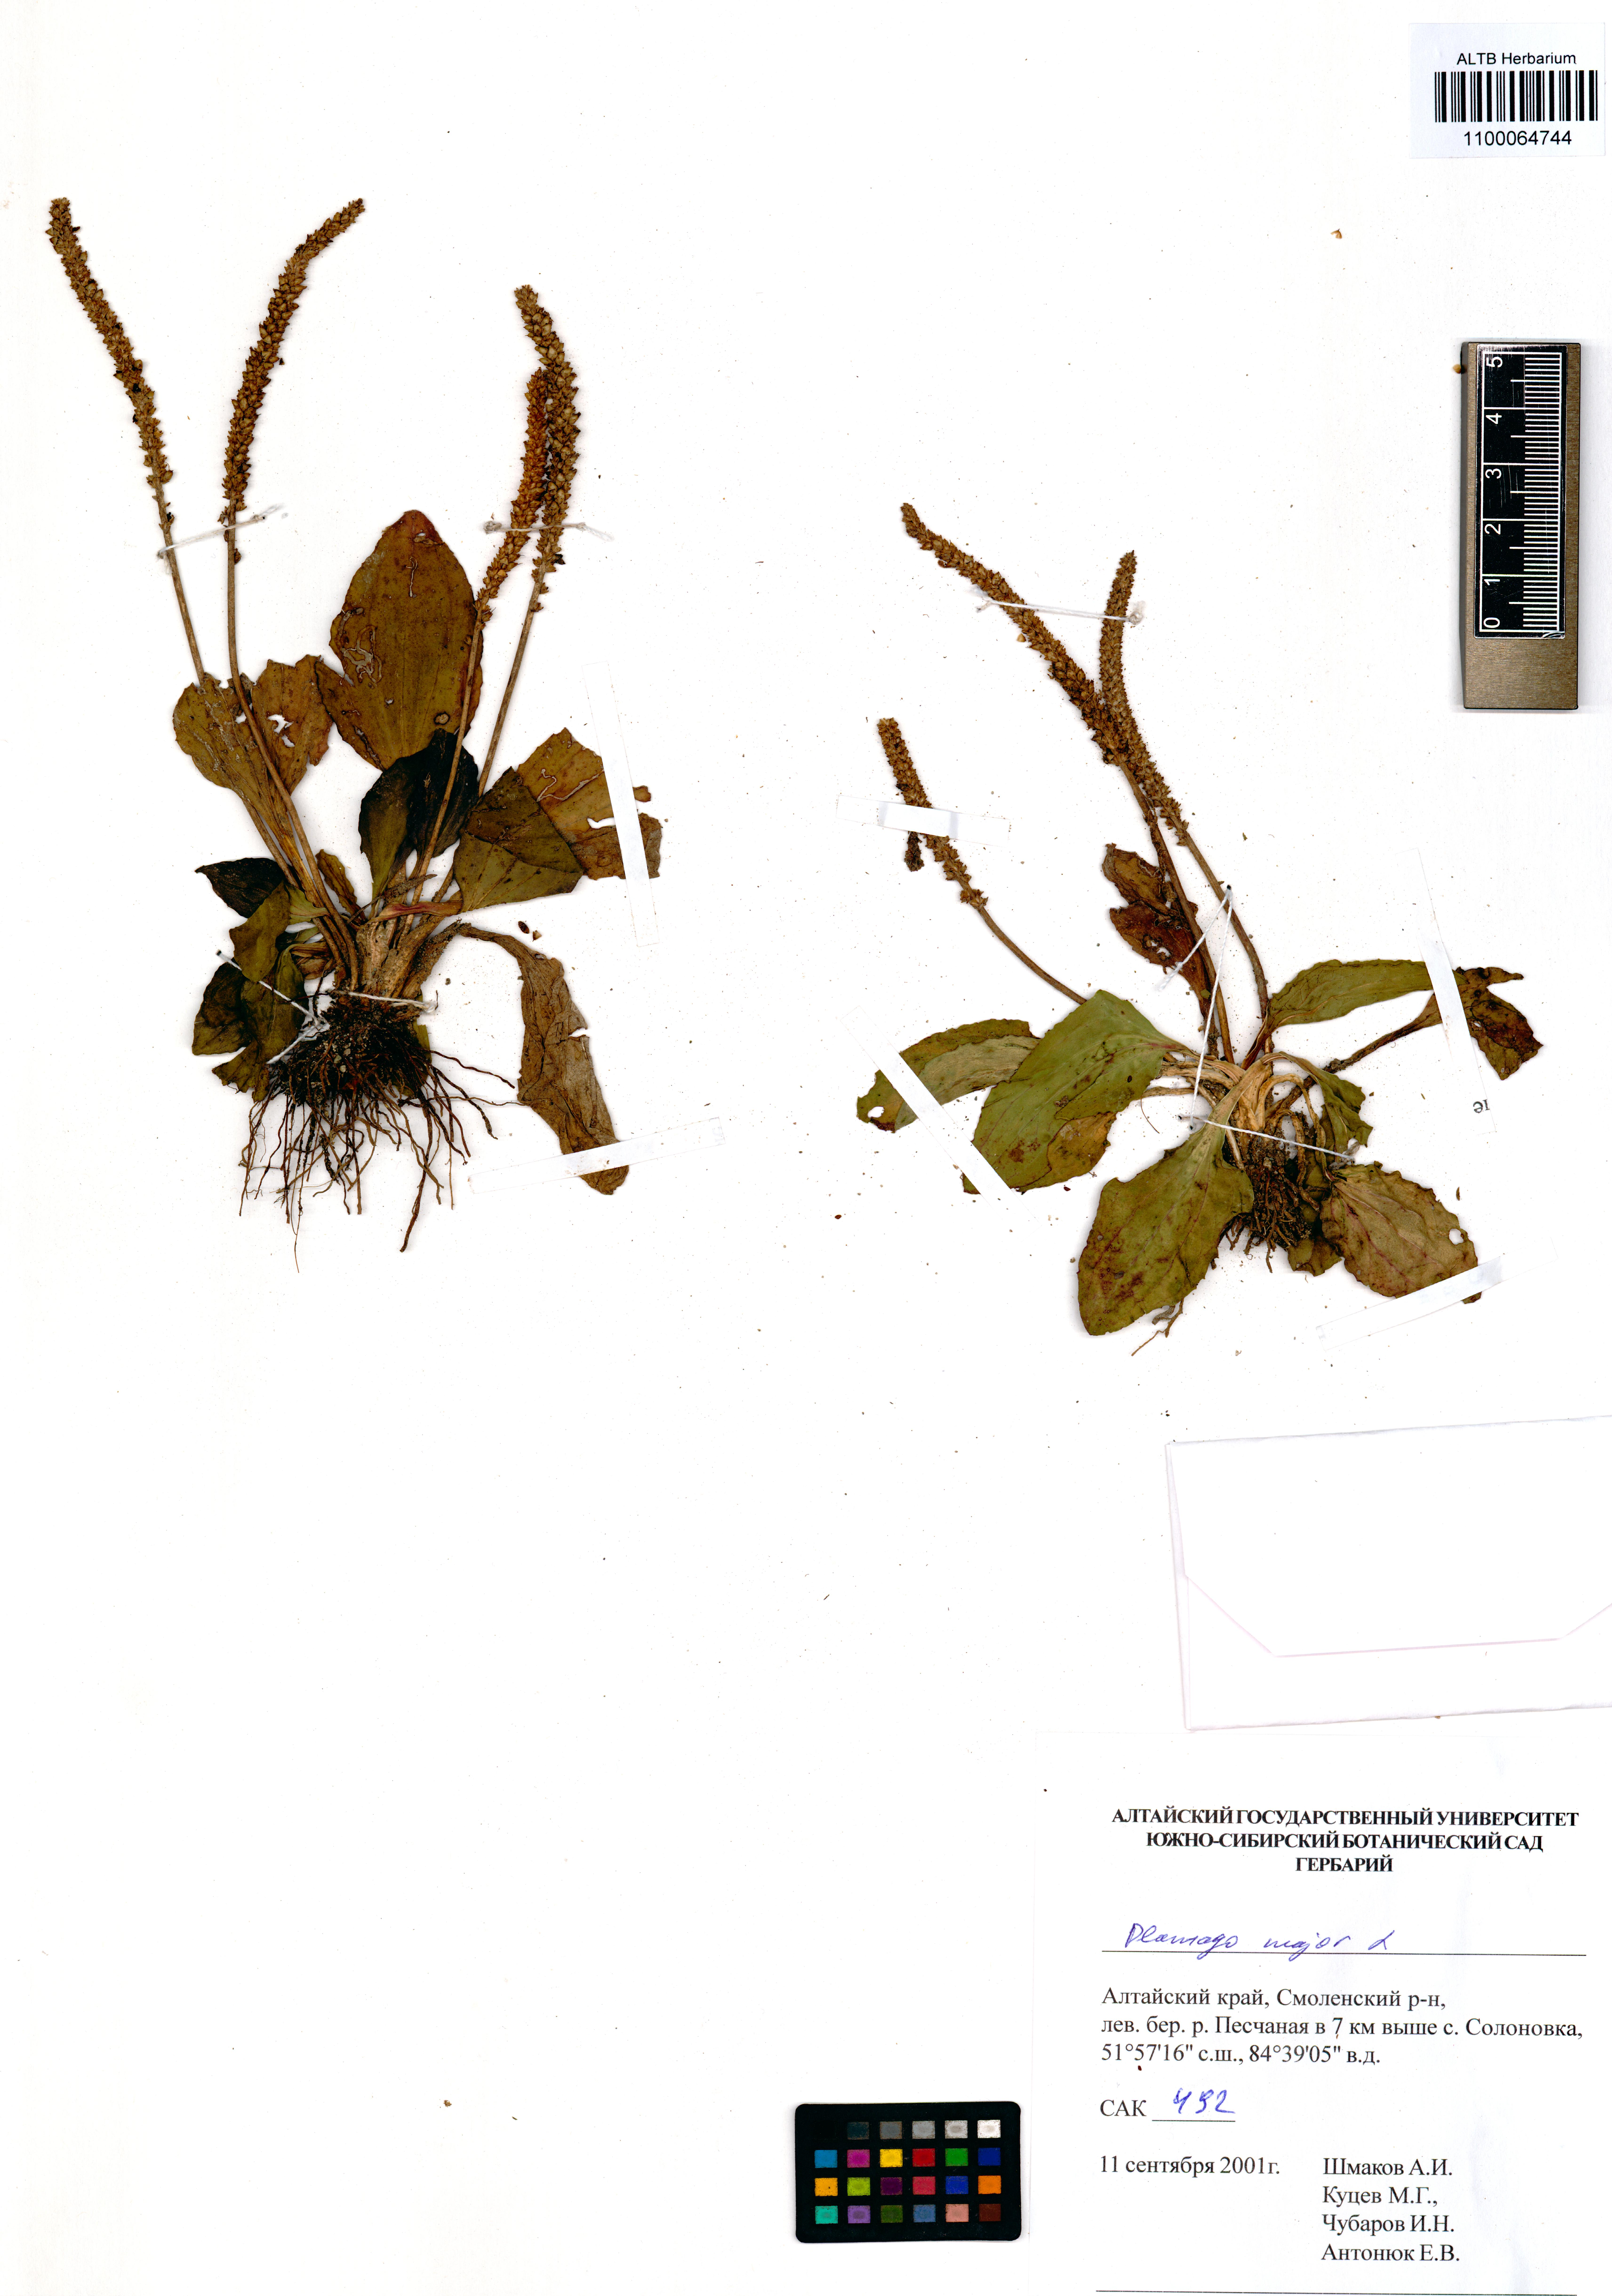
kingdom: Plantae
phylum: Tracheophyta
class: Magnoliopsida
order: Lamiales
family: Plantaginaceae
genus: Plantago
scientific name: Plantago major
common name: Common plantain
